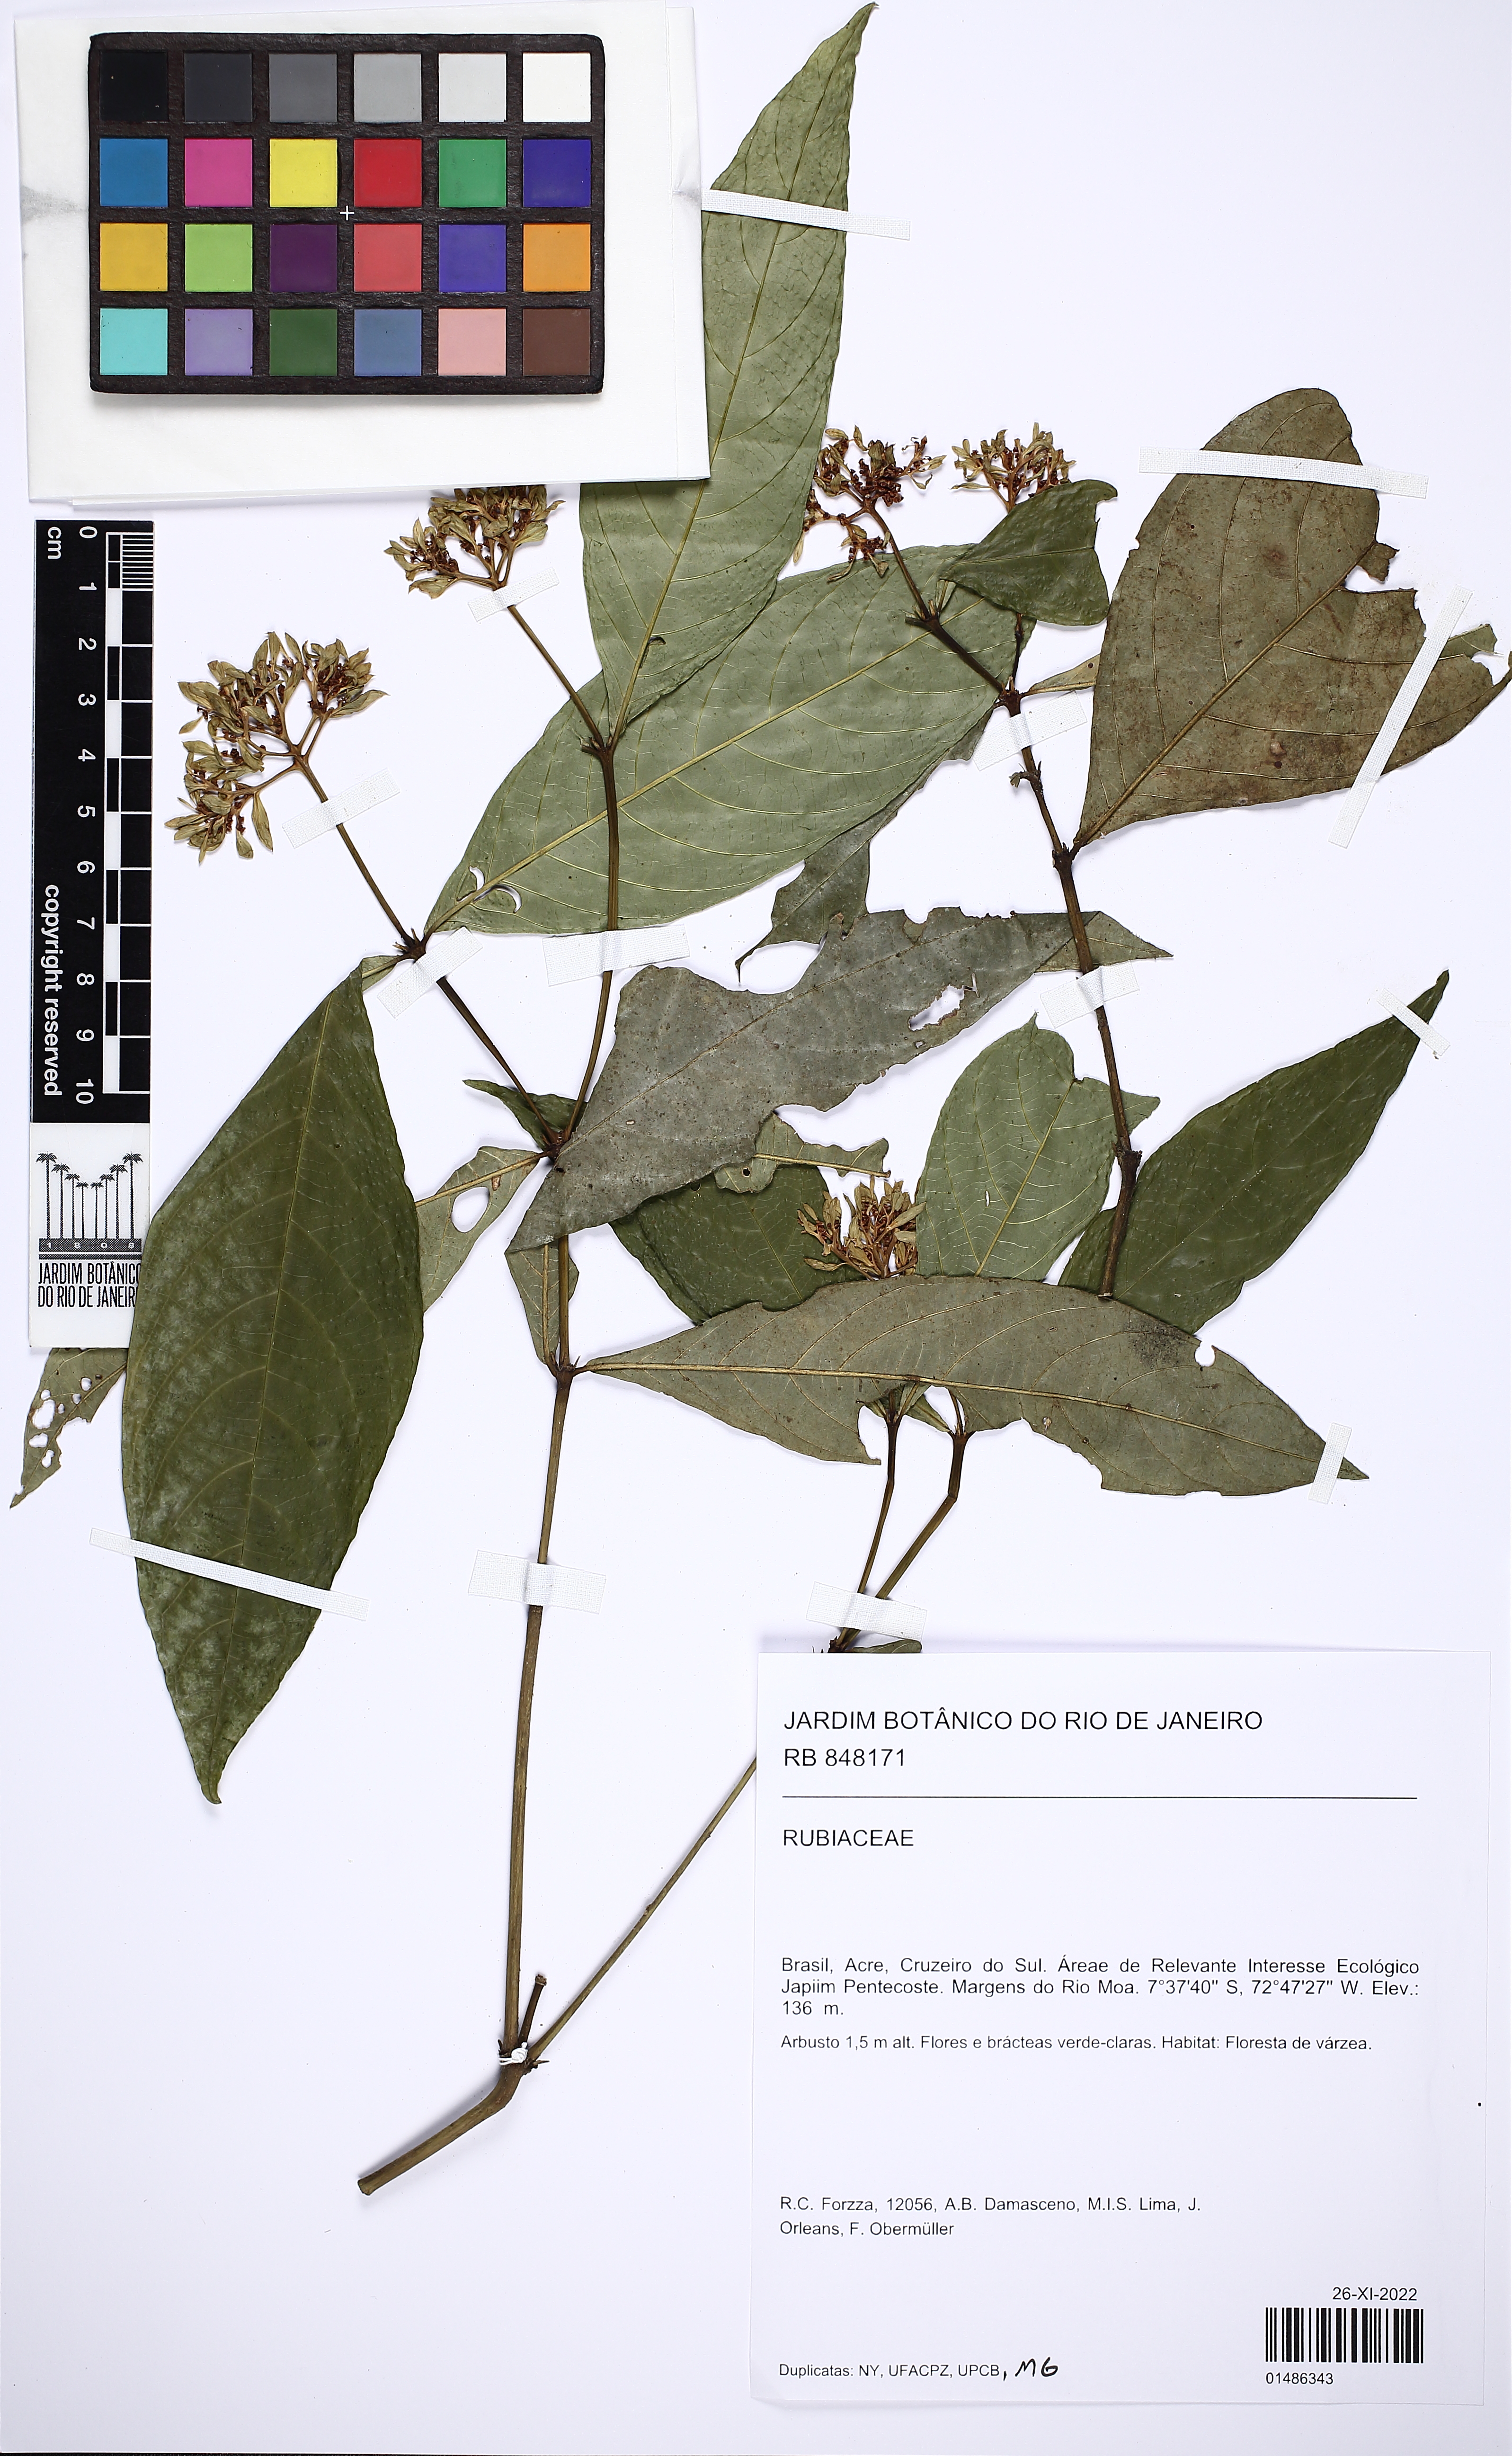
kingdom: Plantae
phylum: Tracheophyta
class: Magnoliopsida
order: Gentianales
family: Rubiaceae
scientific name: Rubiaceae
